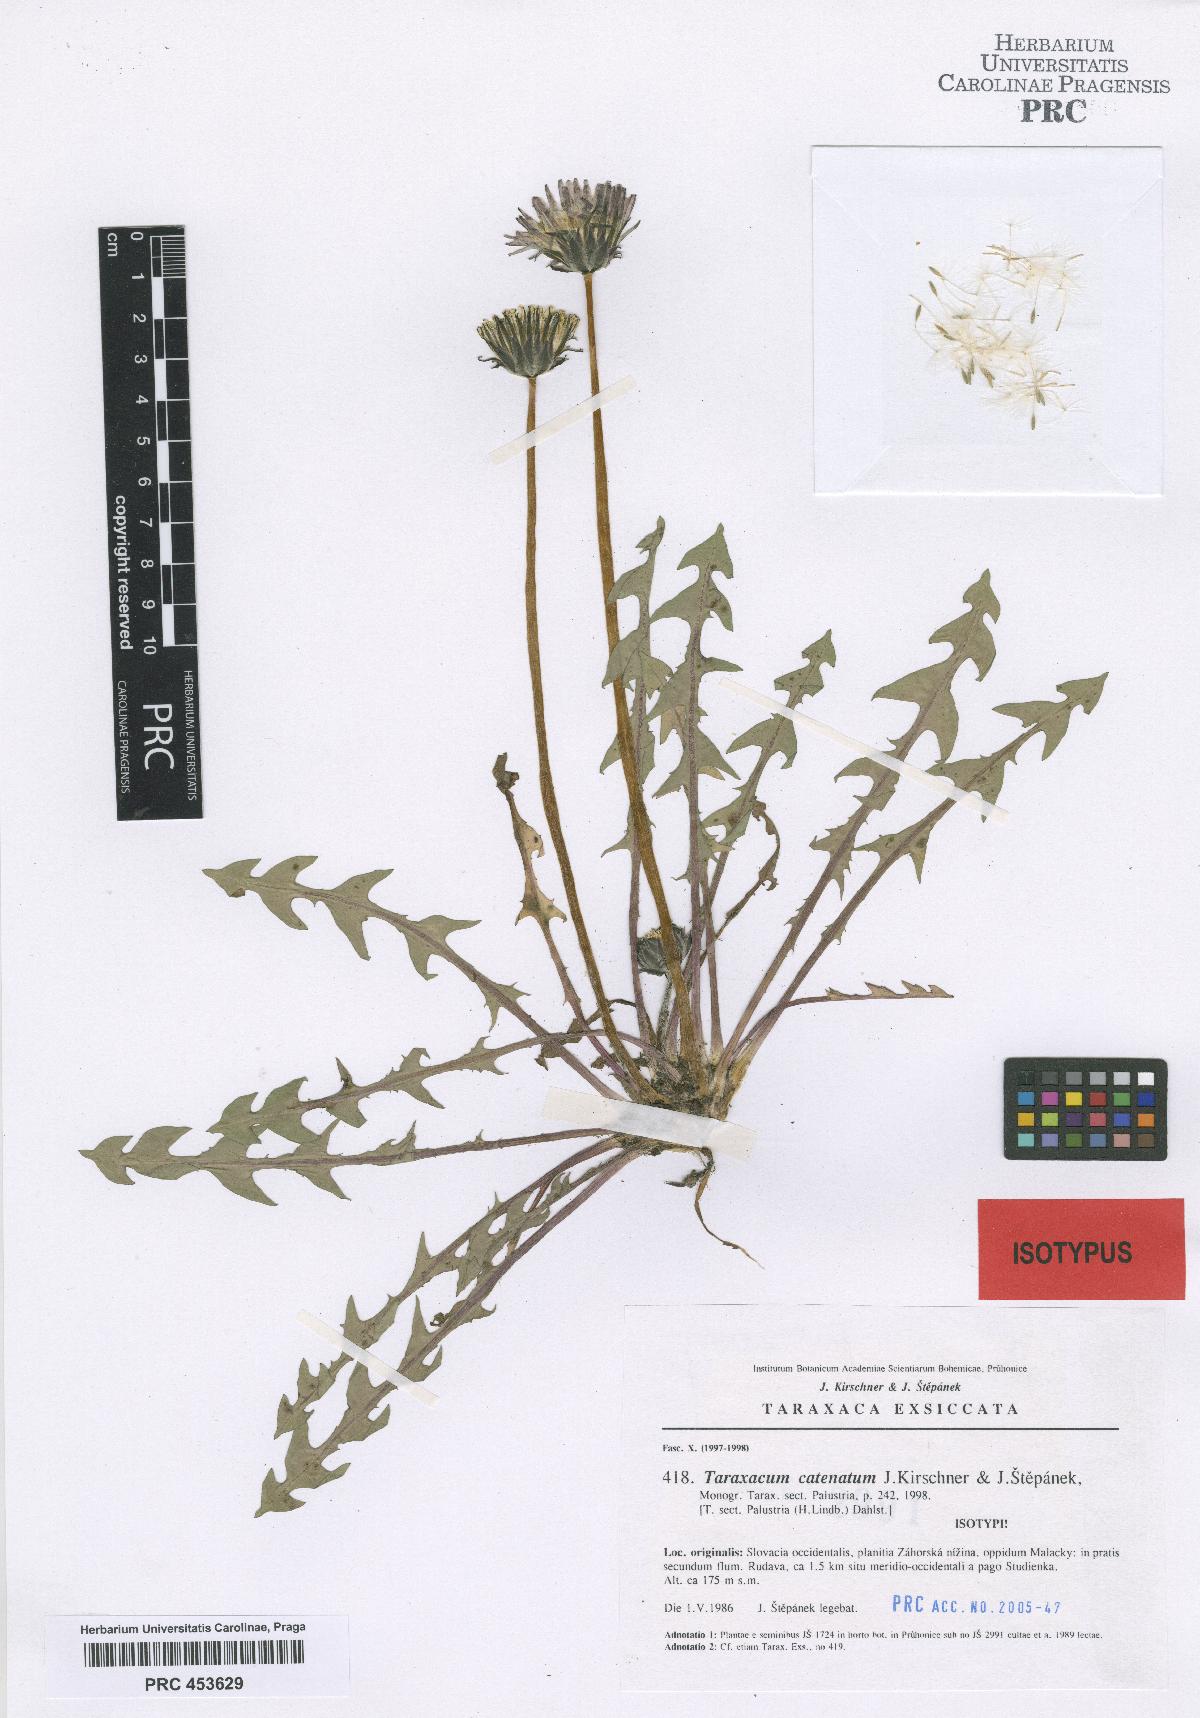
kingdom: Plantae
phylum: Tracheophyta
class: Magnoliopsida
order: Asterales
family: Asteraceae
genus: Taraxacum
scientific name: Taraxacum catenatum
